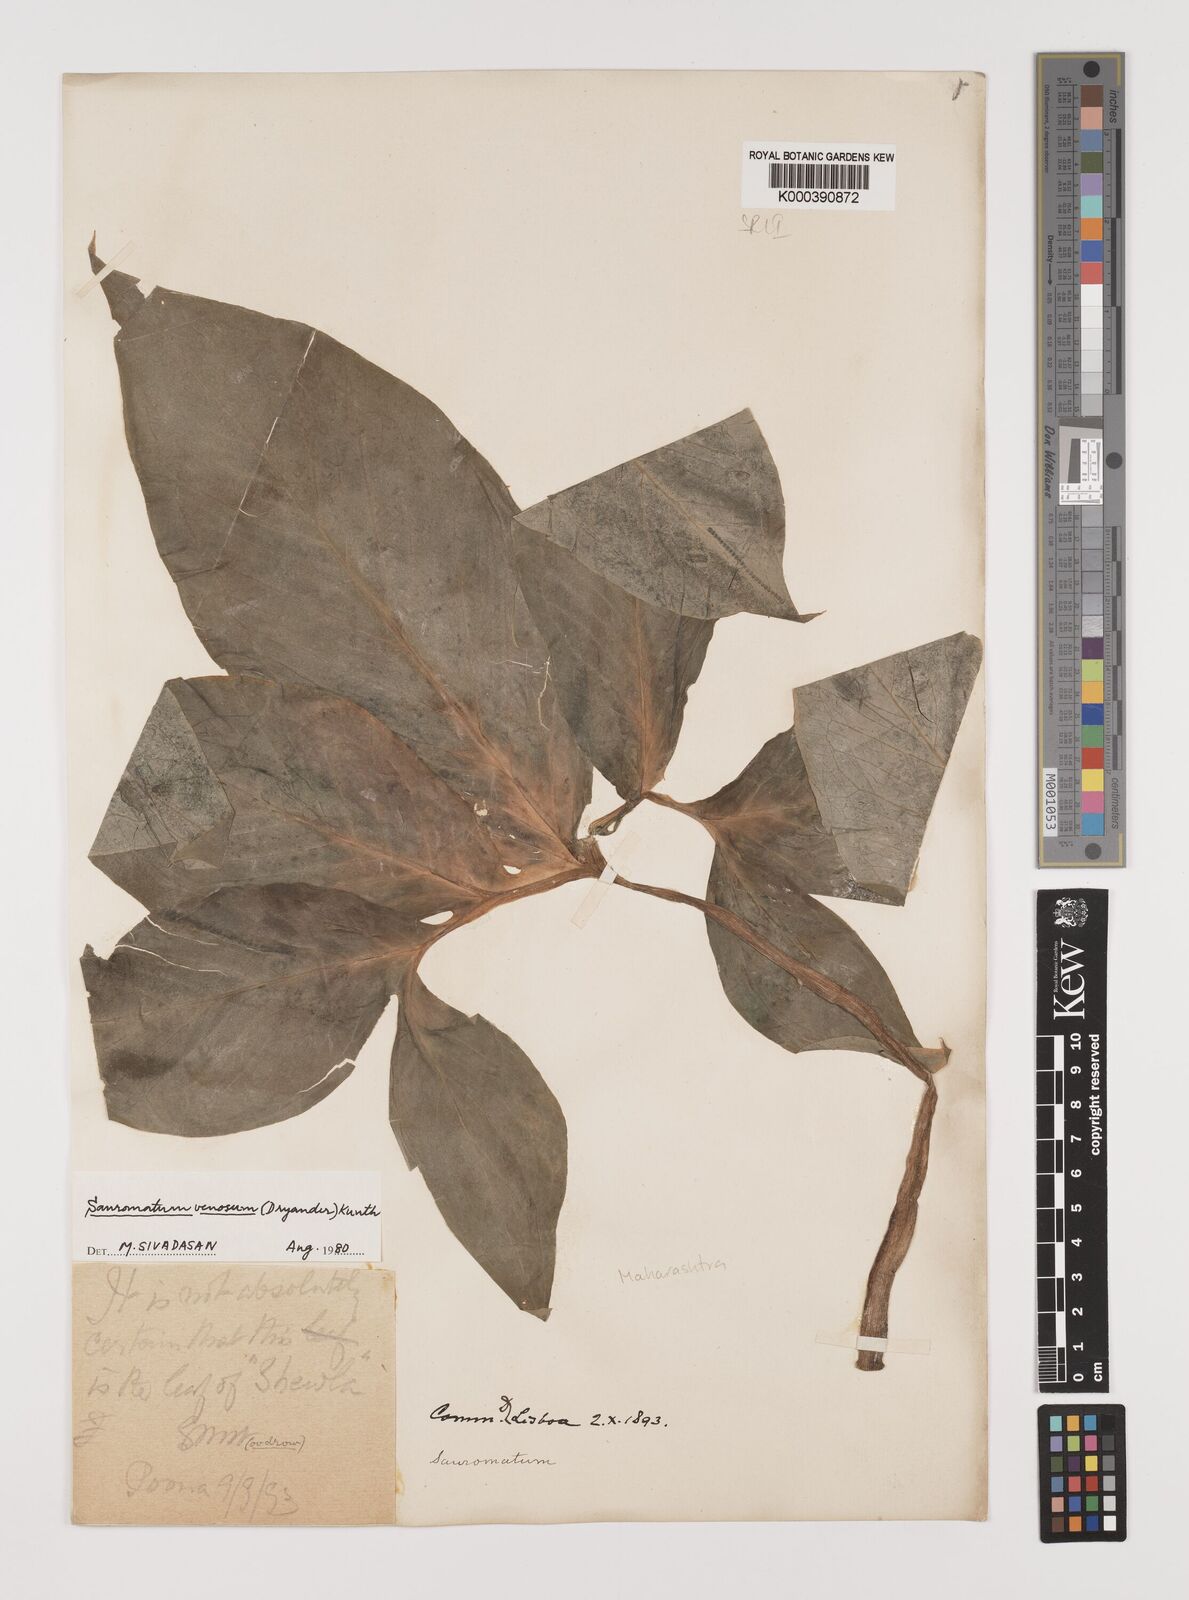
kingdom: Plantae
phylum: Tracheophyta
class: Liliopsida
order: Alismatales
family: Araceae
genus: Sauromatum
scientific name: Sauromatum venosum
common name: Voodoo lily
